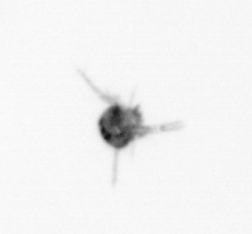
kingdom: Animalia
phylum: Arthropoda
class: Copepoda
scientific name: Copepoda
